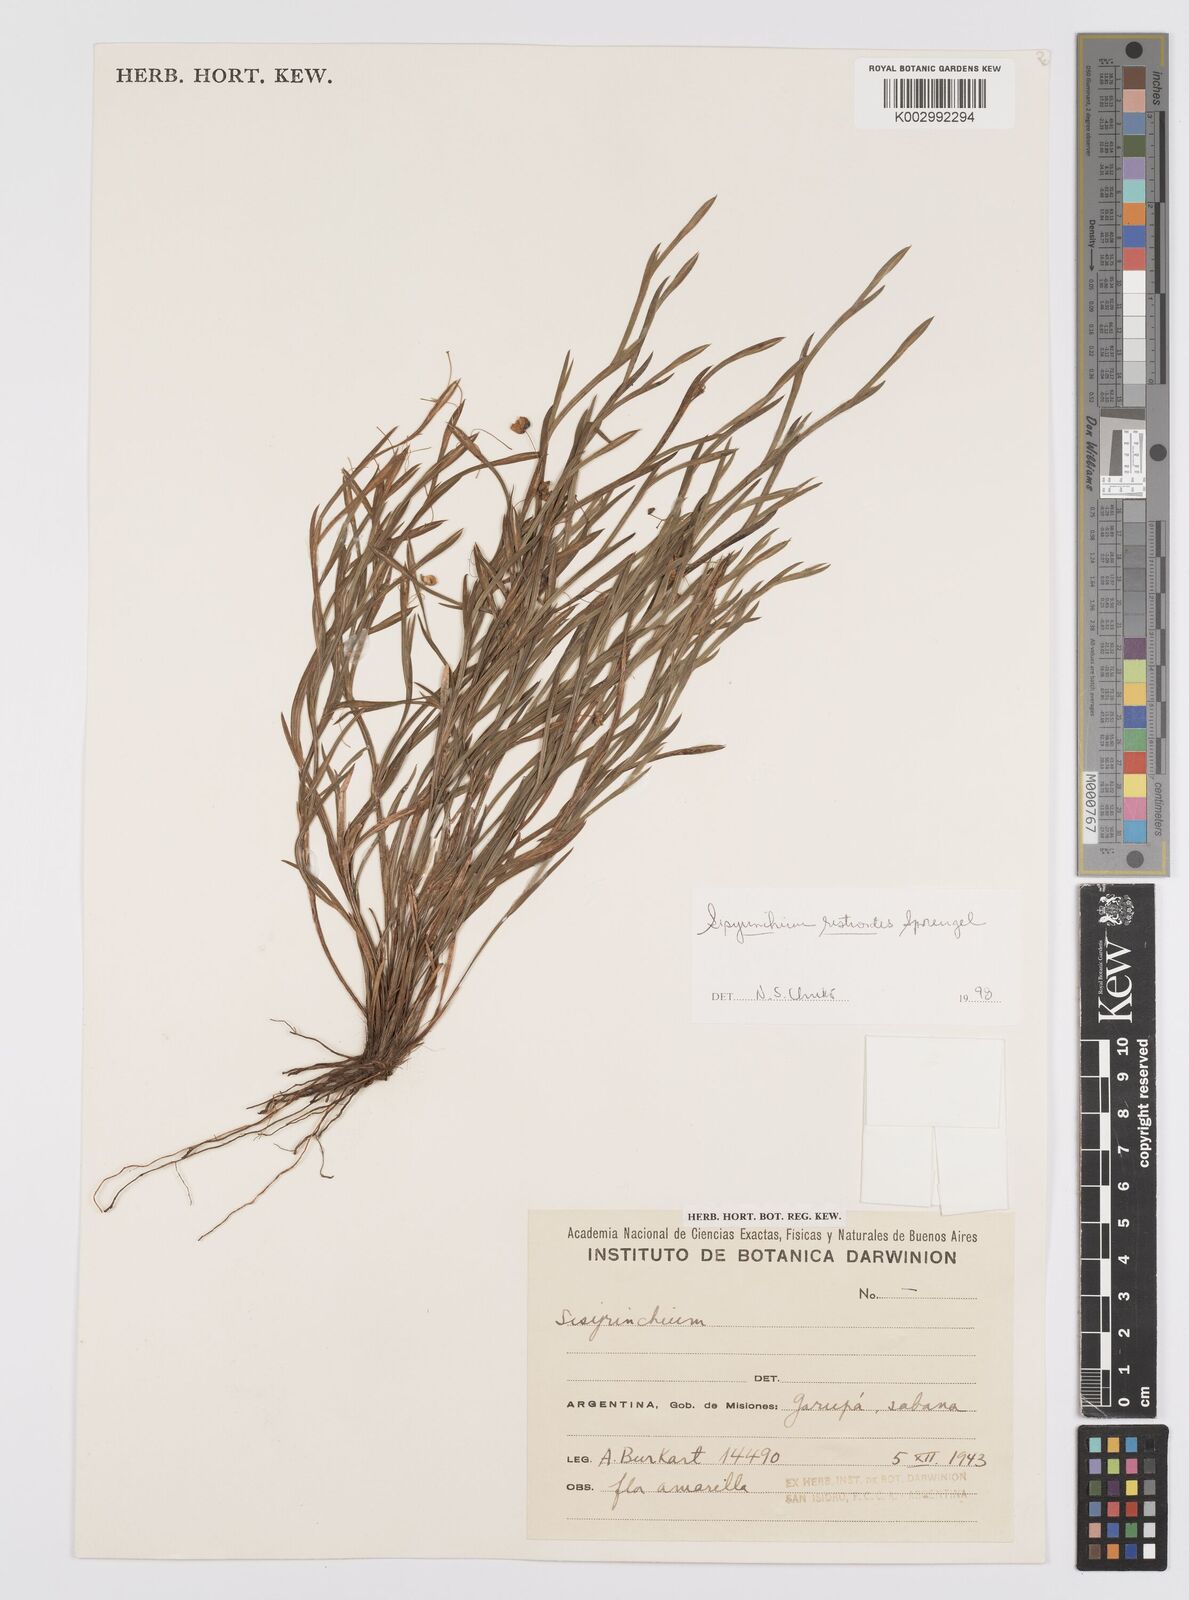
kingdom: Plantae
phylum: Tracheophyta
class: Liliopsida
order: Asparagales
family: Iridaceae
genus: Sisyrinchium
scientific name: Sisyrinchium restioides
